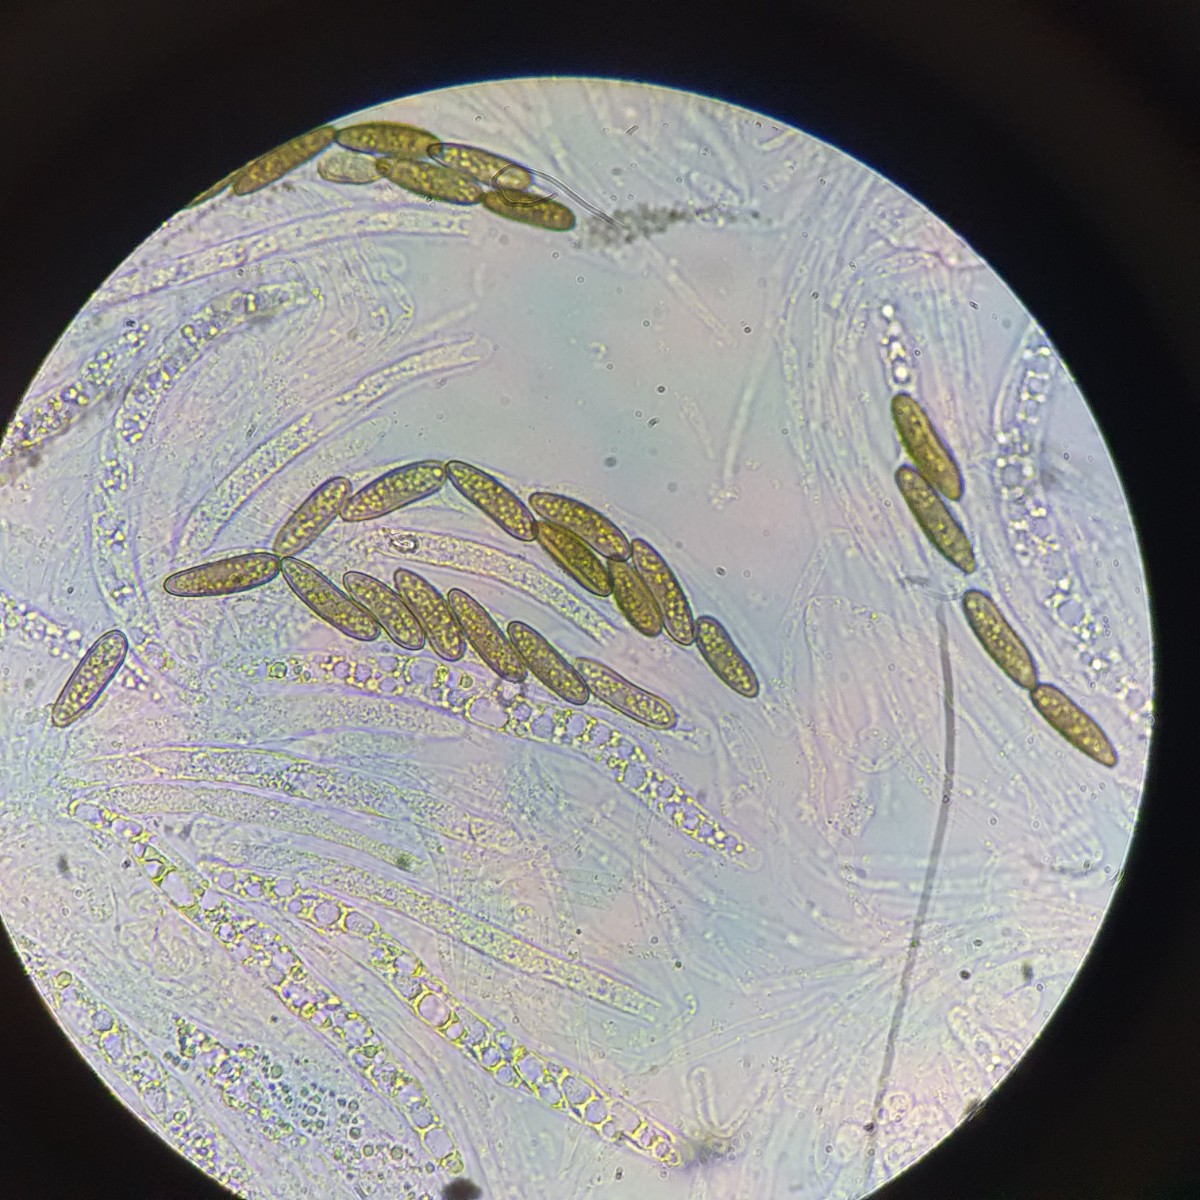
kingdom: Fungi
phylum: Ascomycota
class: Sordariomycetes
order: Amphisphaeriales
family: Clypeosphaeriaceae
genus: Clypeosphaeria
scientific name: Clypeosphaeria mamillana
